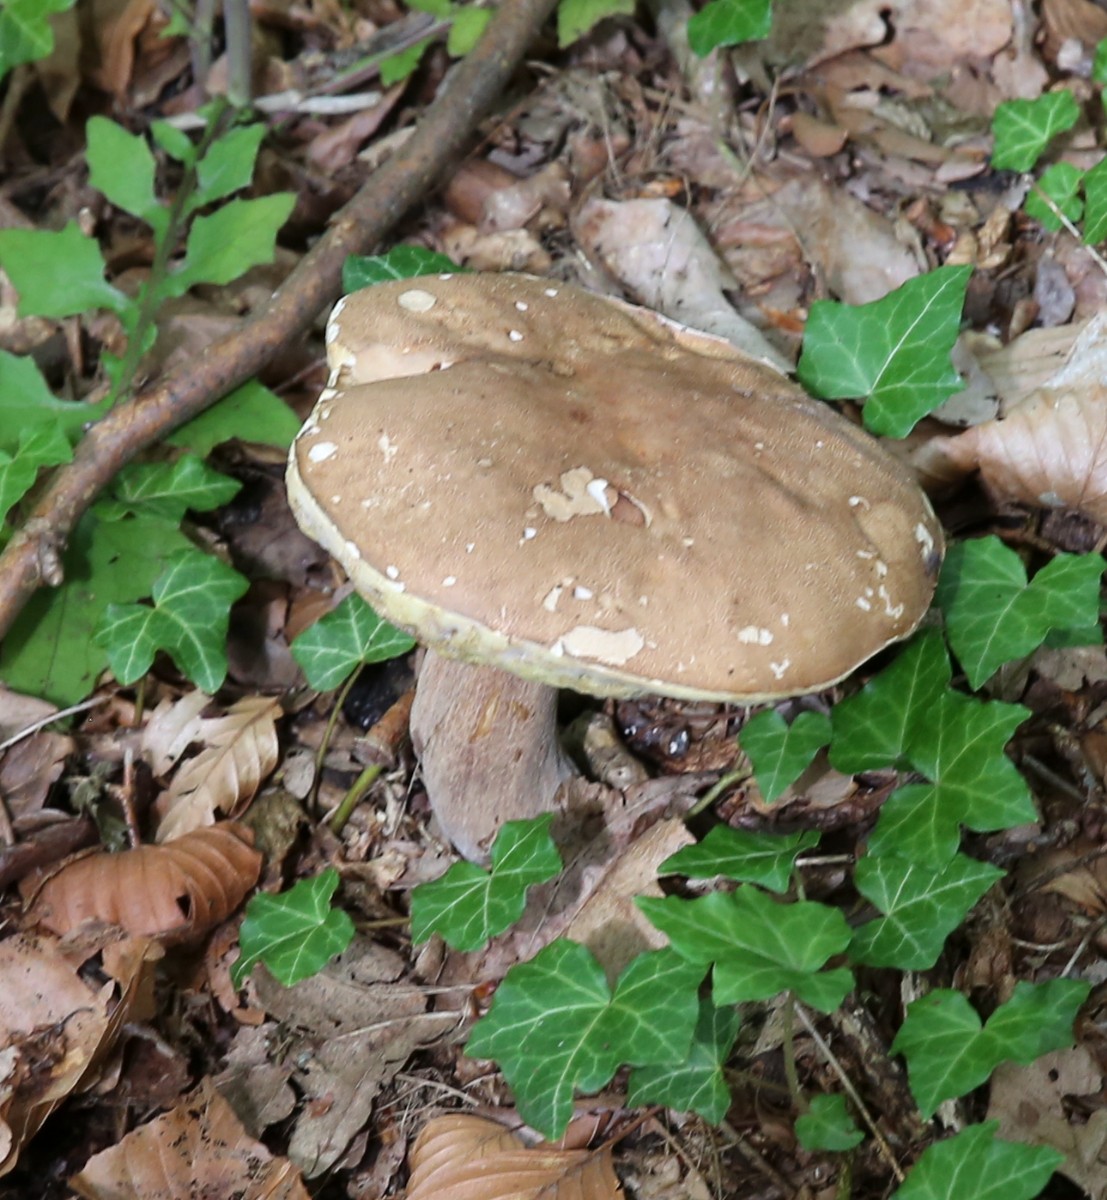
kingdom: Fungi
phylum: Basidiomycota
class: Agaricomycetes
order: Boletales
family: Boletaceae
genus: Boletus
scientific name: Boletus reticulatus
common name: sommer-rørhat
